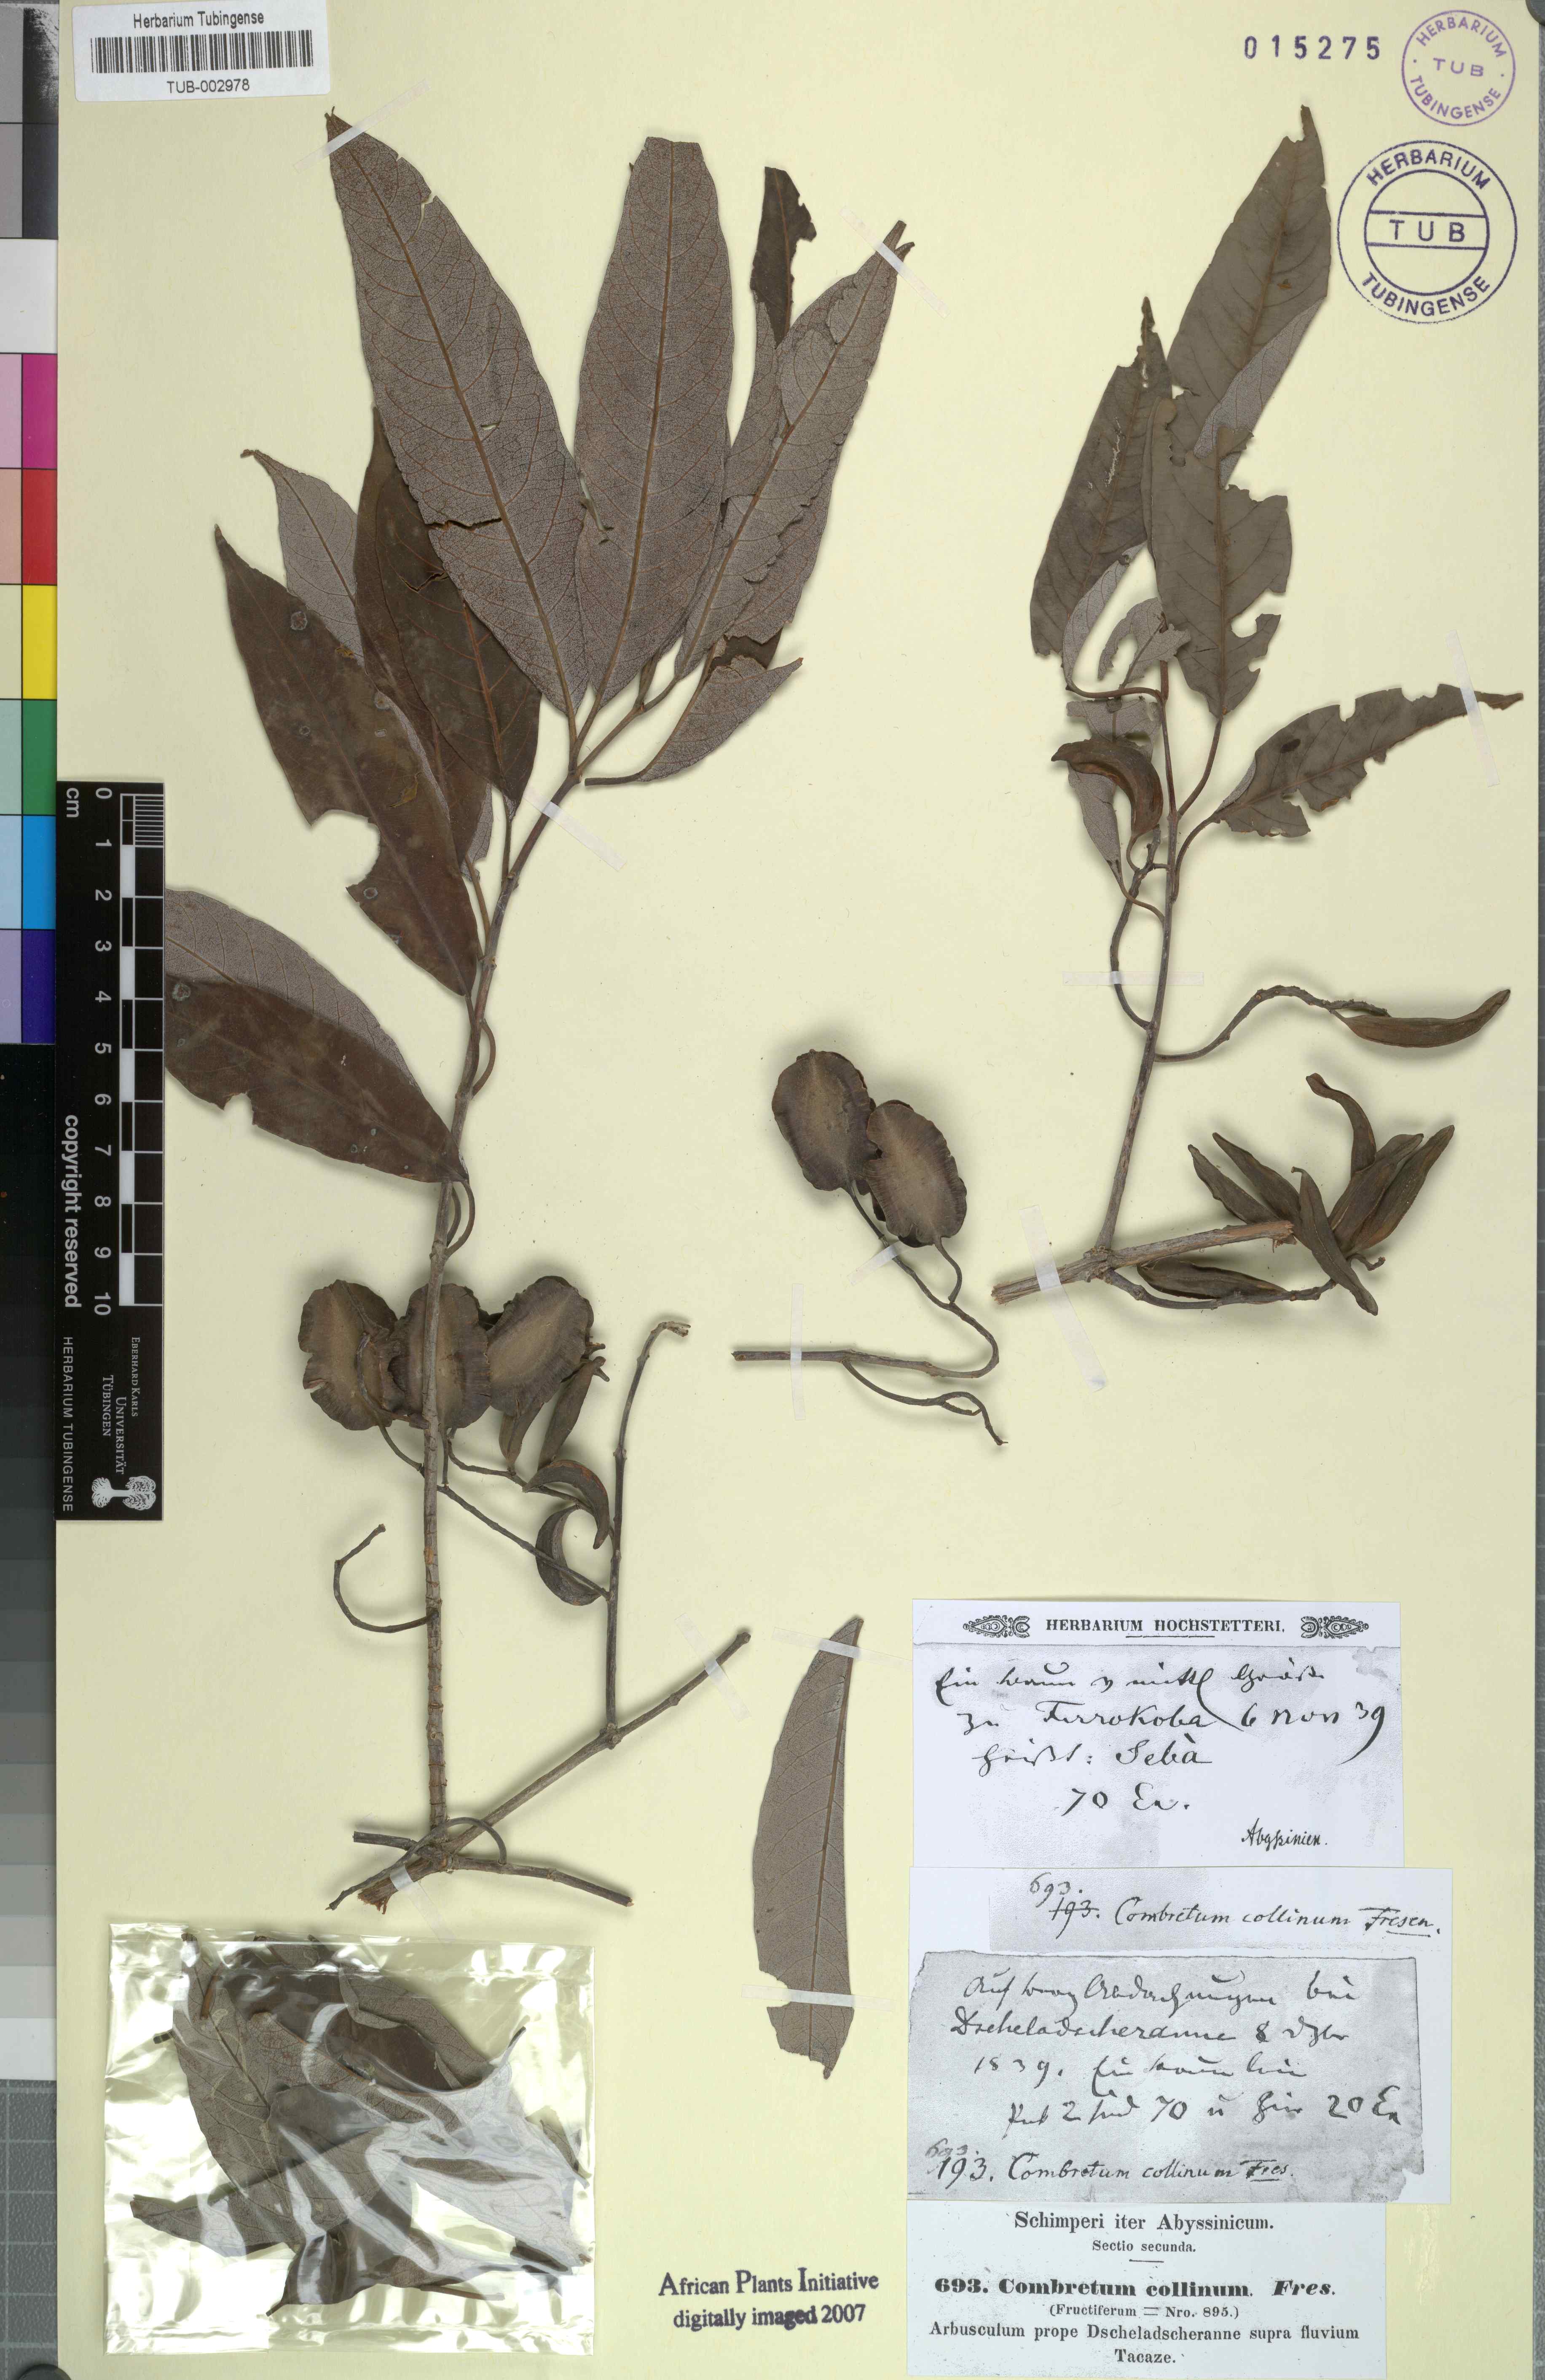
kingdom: Plantae
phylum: Tracheophyta
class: Magnoliopsida
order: Myrtales
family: Combretaceae
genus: Combretum
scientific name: Combretum collinum
